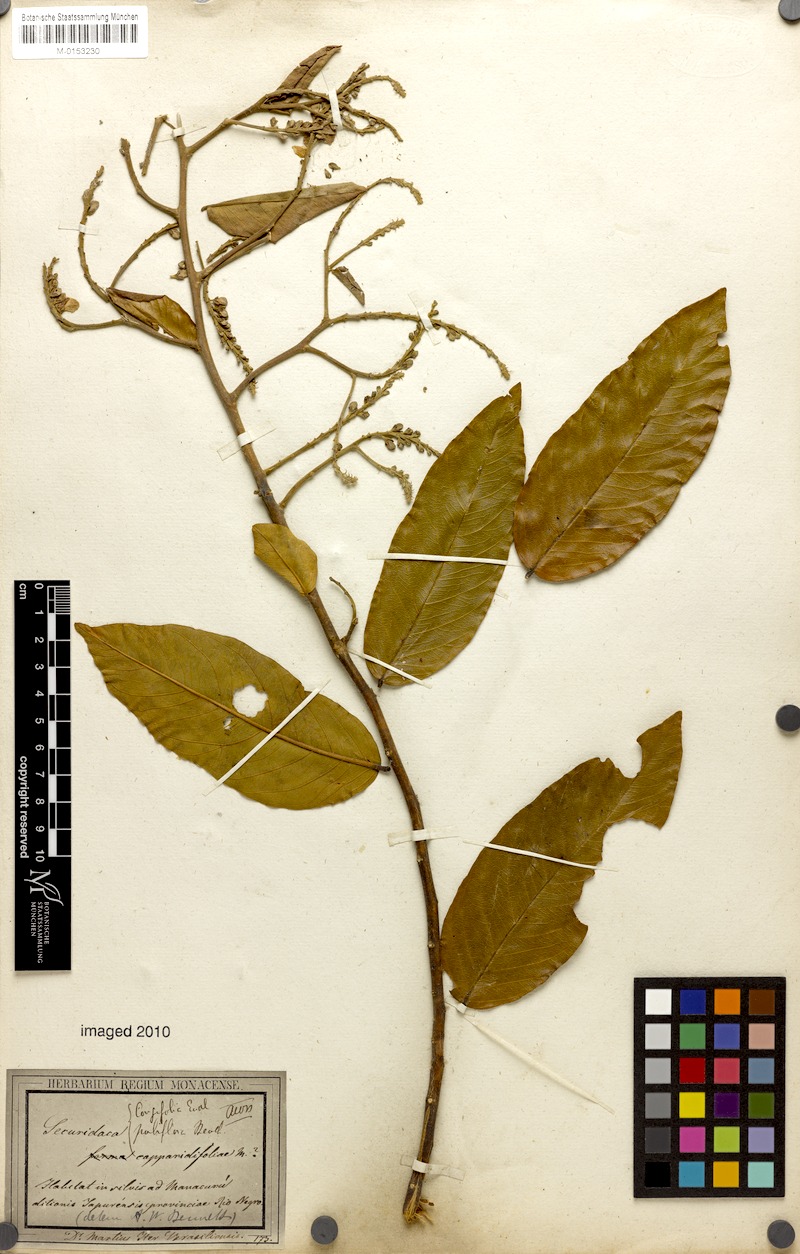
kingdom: Plantae
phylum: Tracheophyta
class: Magnoliopsida
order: Fabales
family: Polygalaceae
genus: Securidaca
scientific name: Securidaca longifolia
